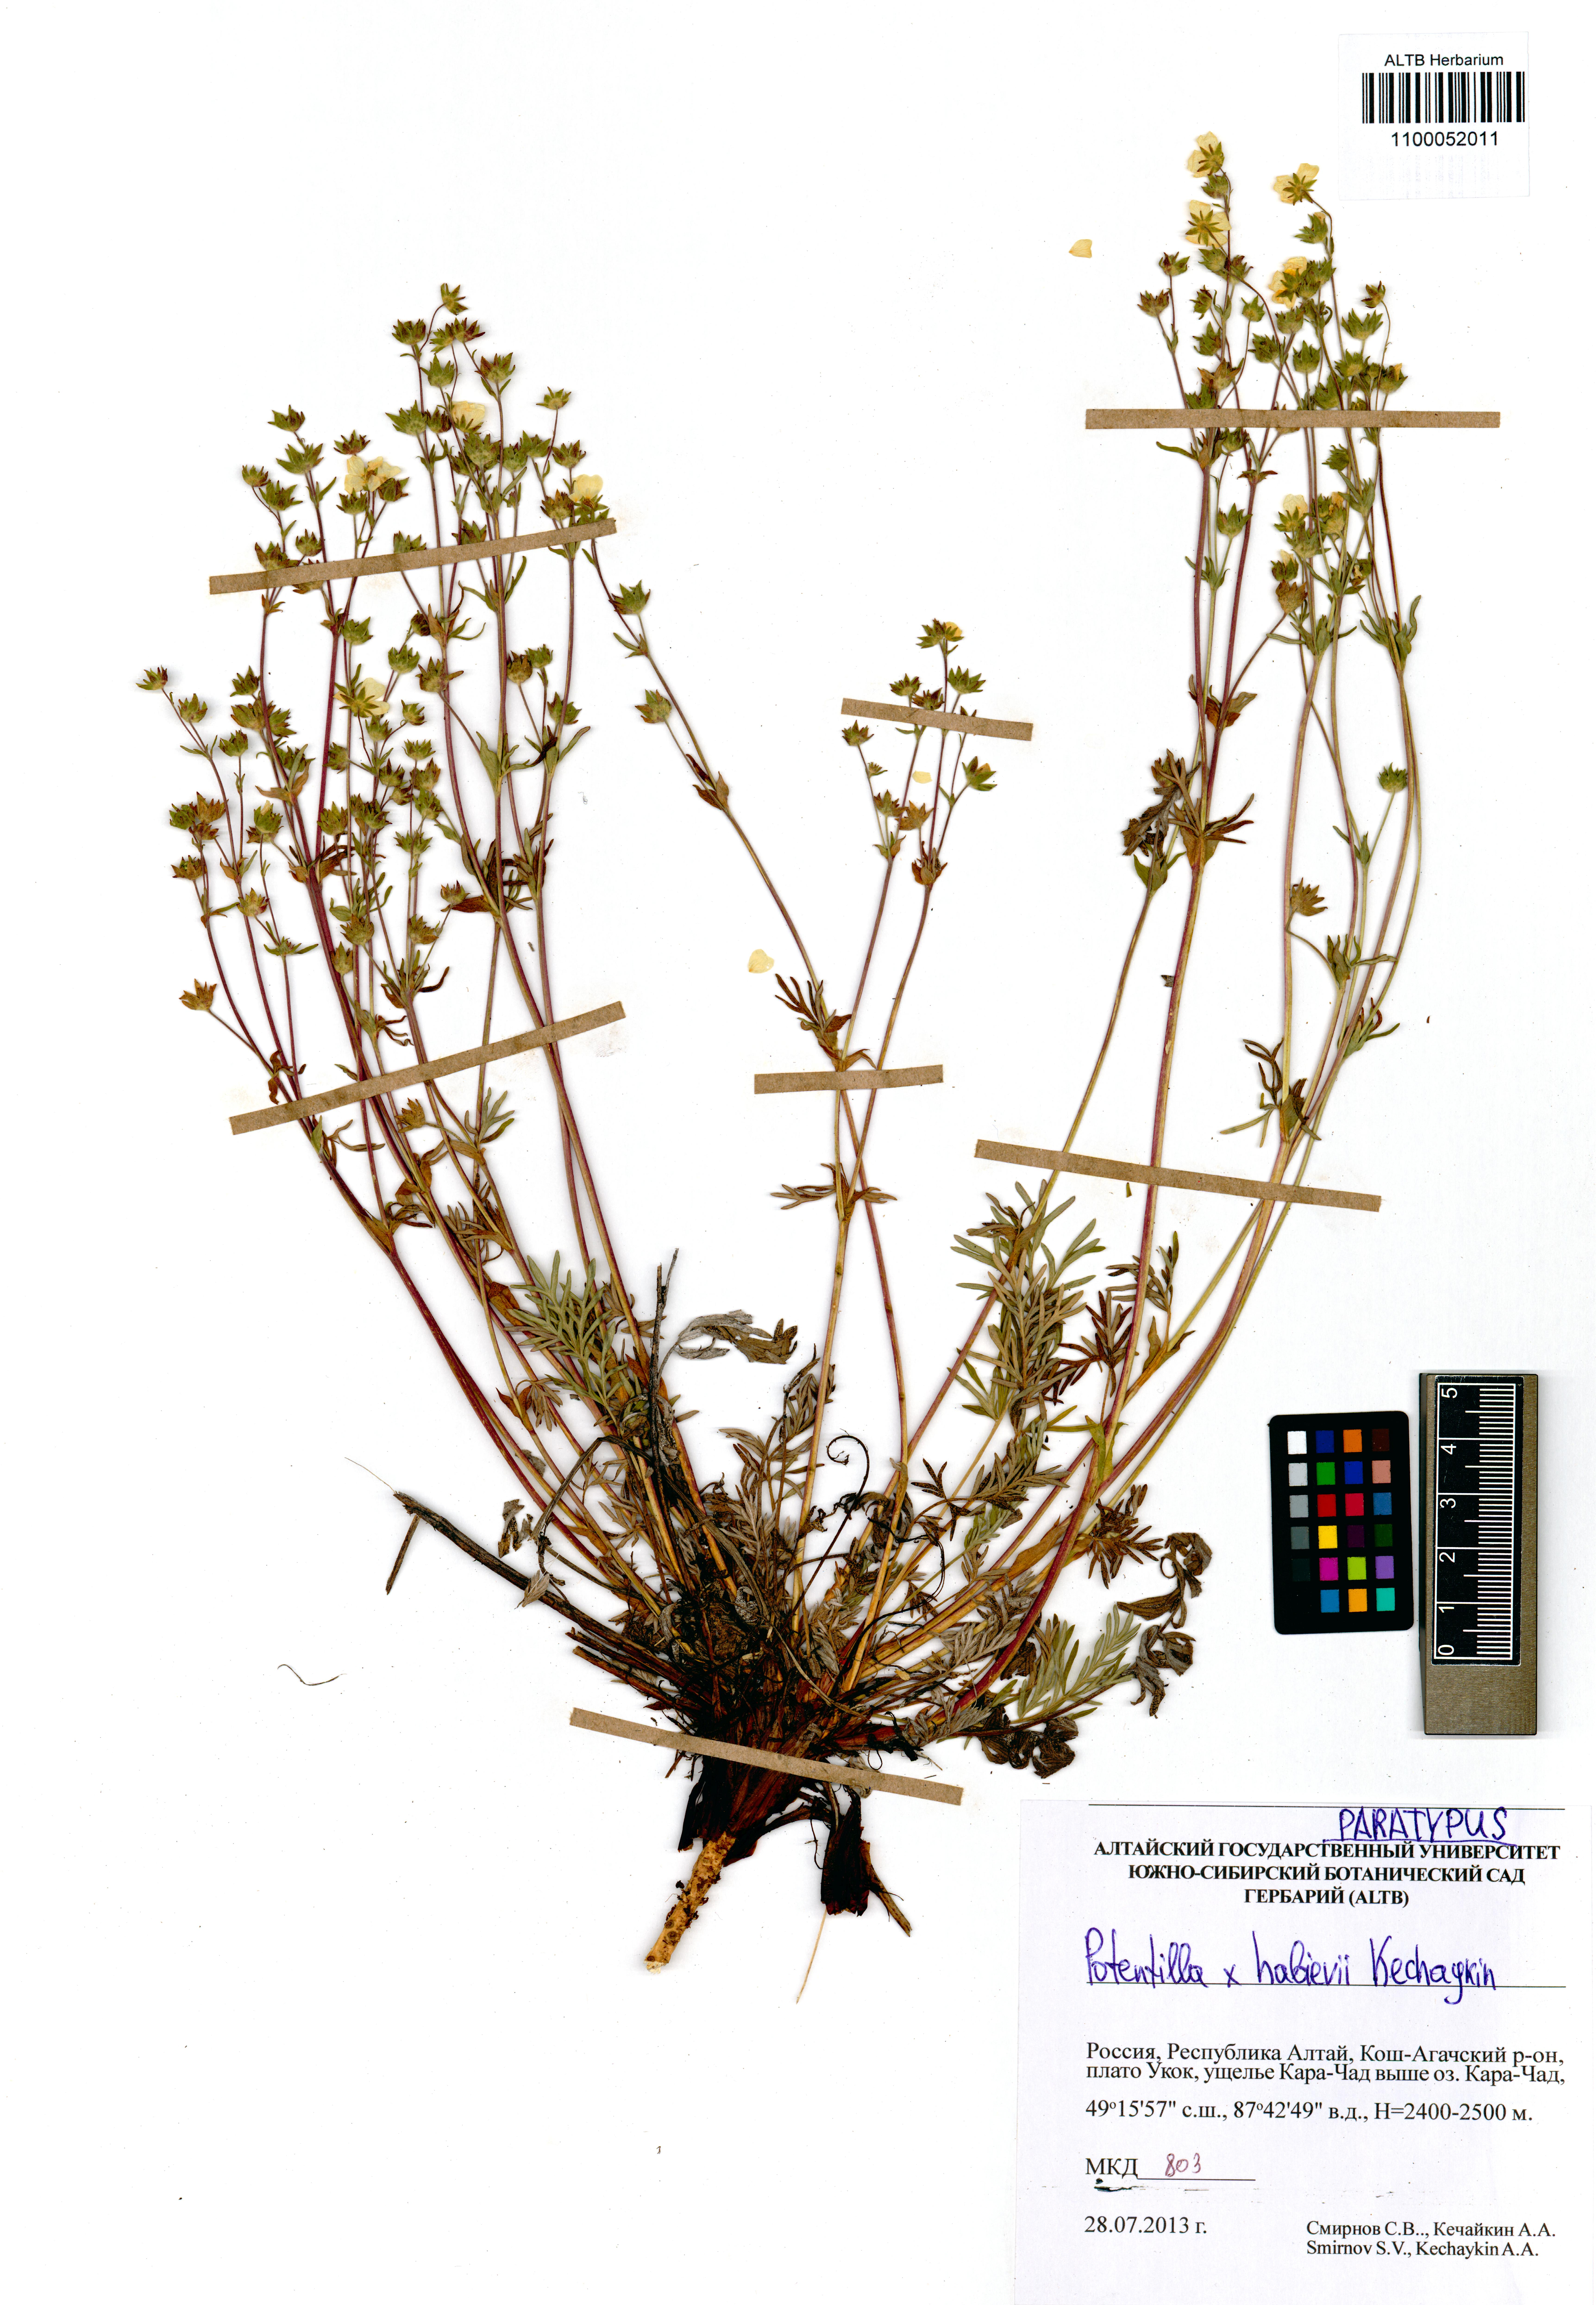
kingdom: Plantae
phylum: Tracheophyta
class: Magnoliopsida
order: Rosales
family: Rosaceae
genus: Potentilla
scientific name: Potentilla habievii
